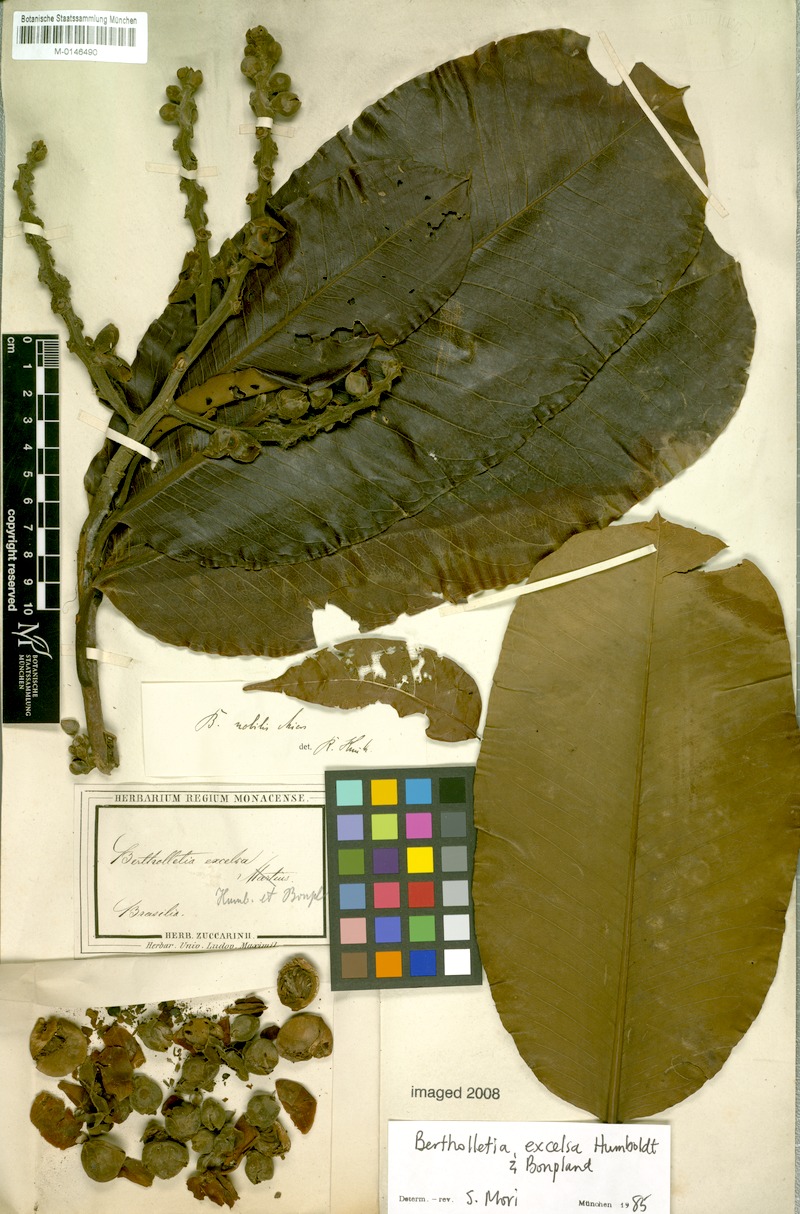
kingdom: Plantae
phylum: Tracheophyta
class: Magnoliopsida
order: Ericales
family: Lecythidaceae
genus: Bertholletia
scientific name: Bertholletia excelsa
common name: Brazil-nut tree
